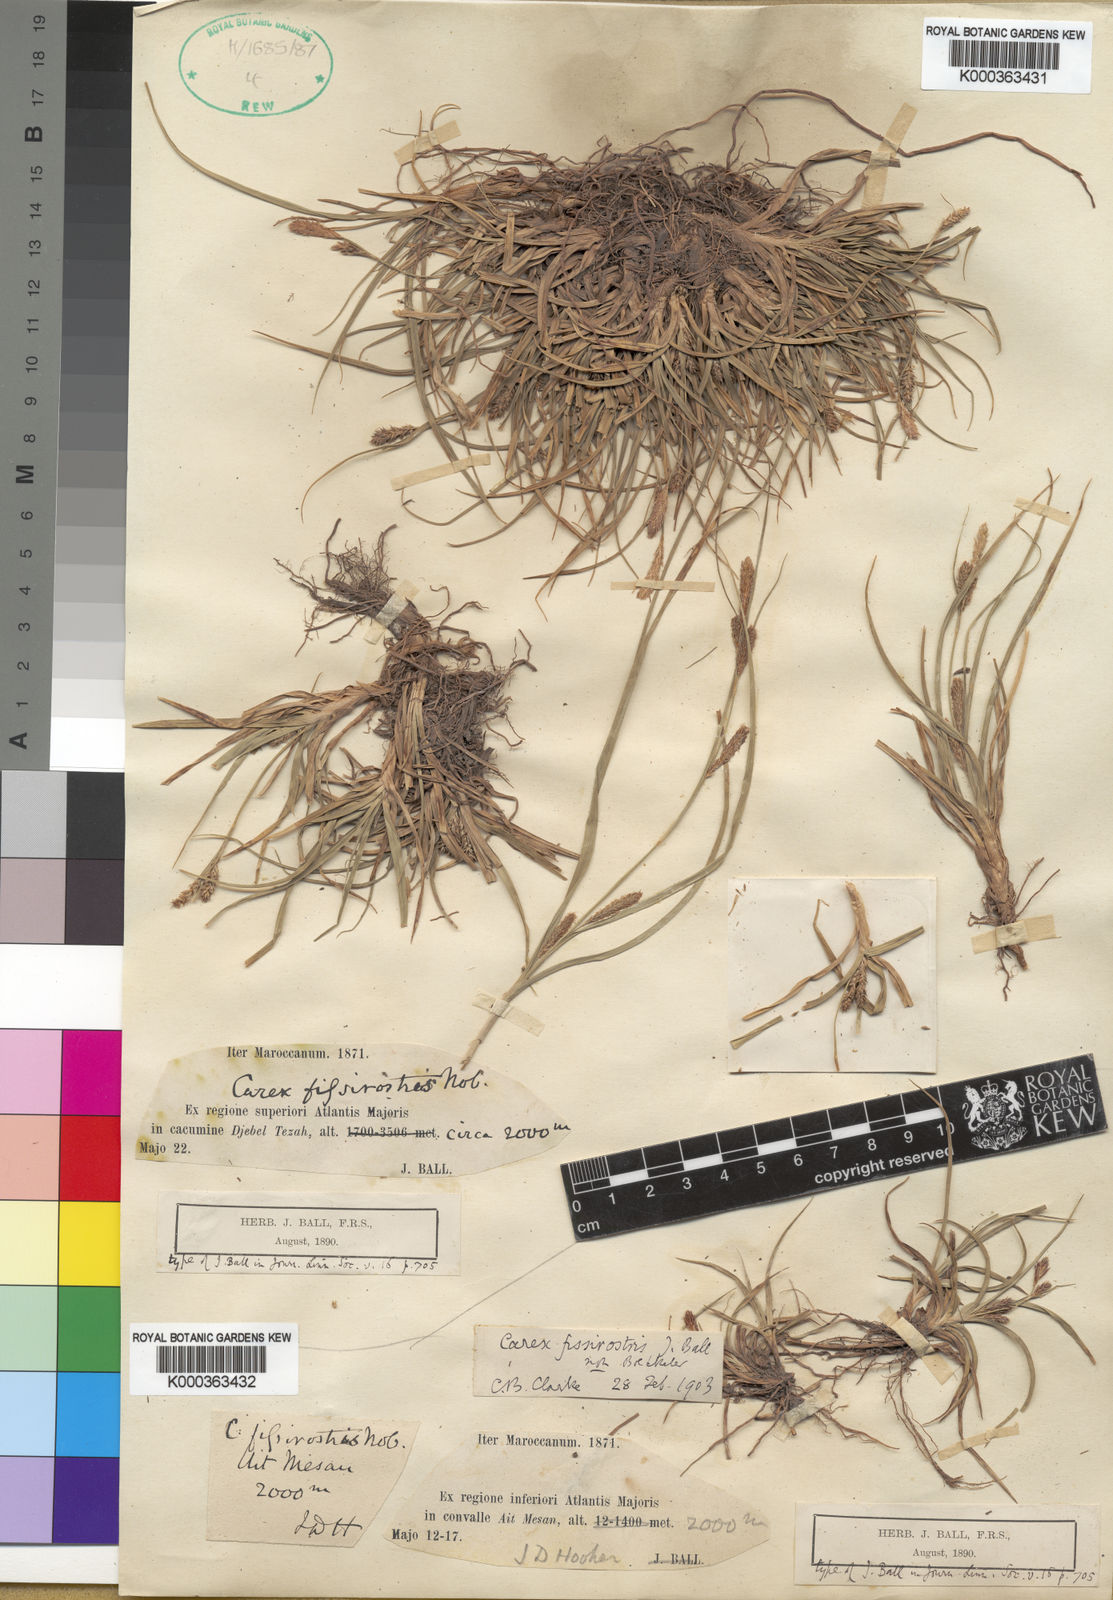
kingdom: Plantae
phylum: Tracheophyta
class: Liliopsida
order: Poales
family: Cyperaceae
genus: Carex
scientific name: Carex diluta
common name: Sedge
